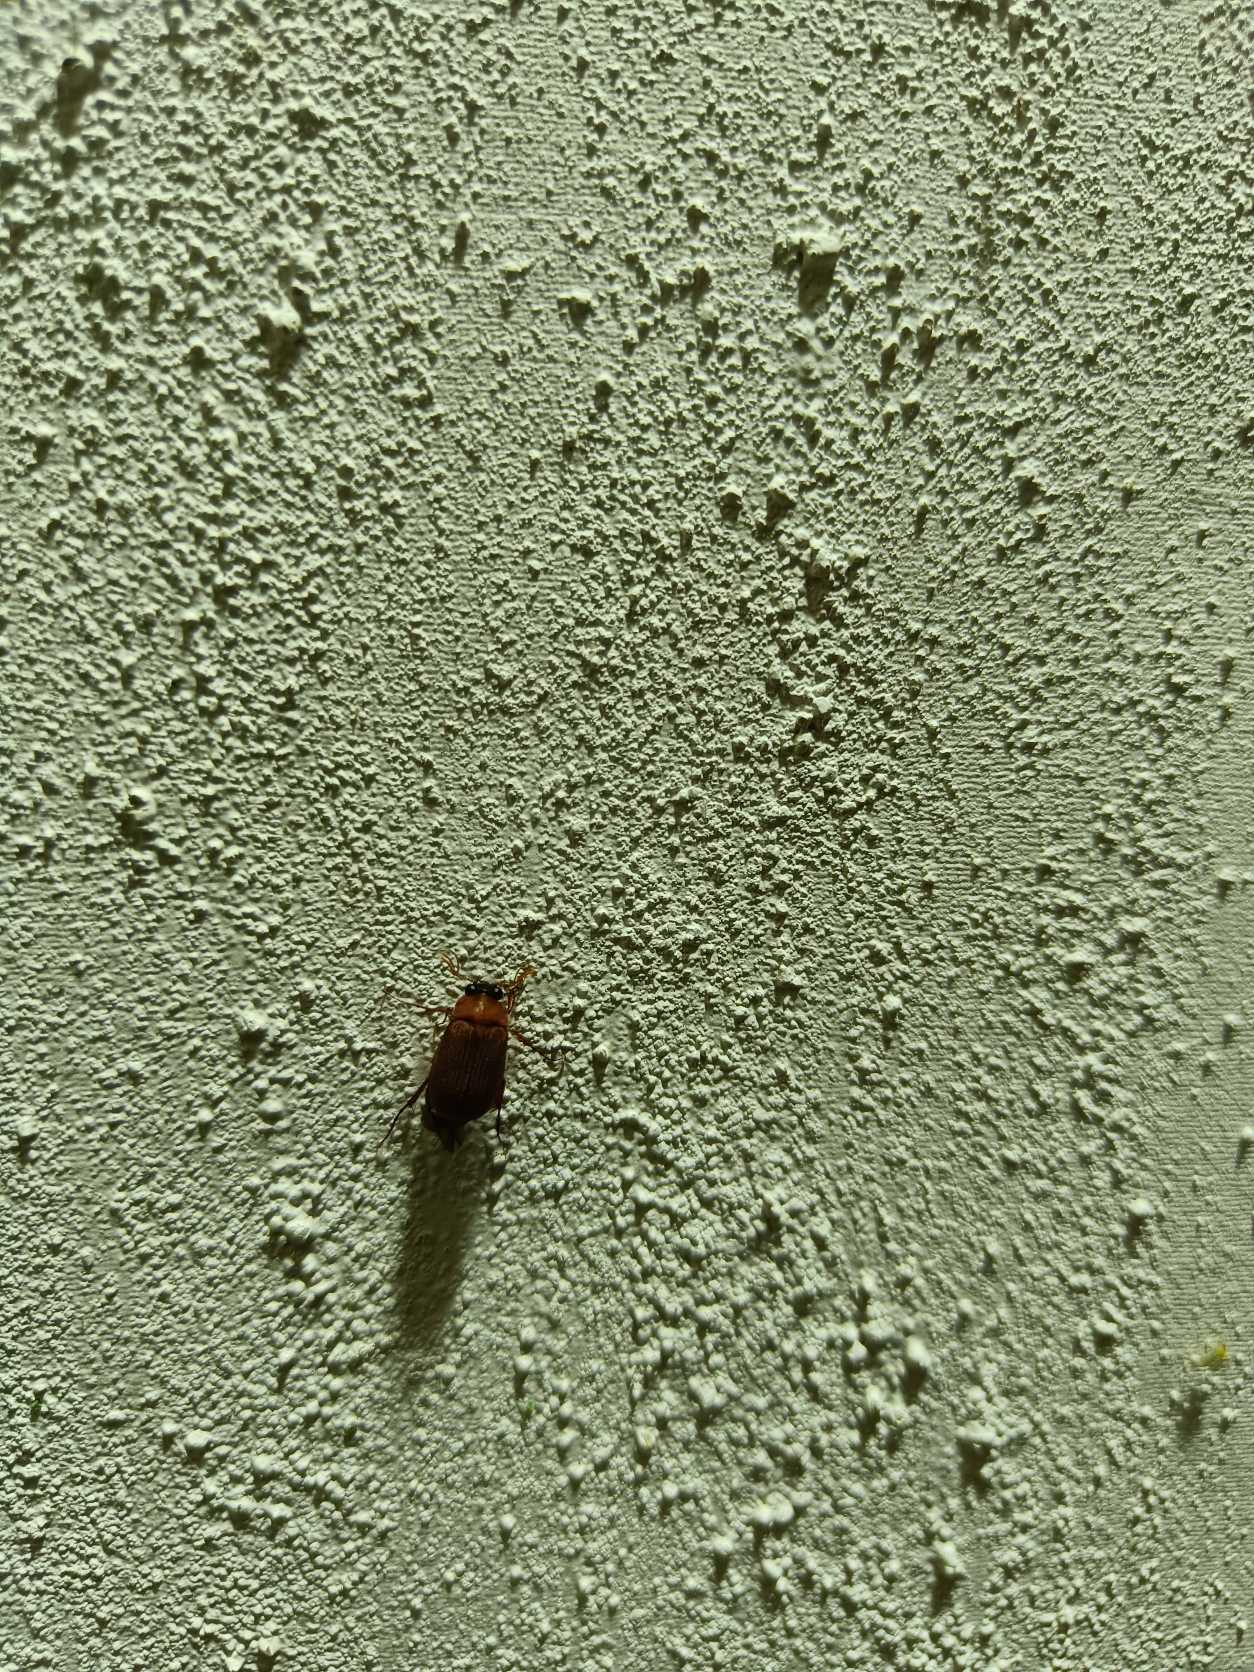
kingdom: Animalia
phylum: Arthropoda
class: Insecta
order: Coleoptera
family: Scarabaeidae
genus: Serica
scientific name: Serica brunnea
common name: Natoldenborre
